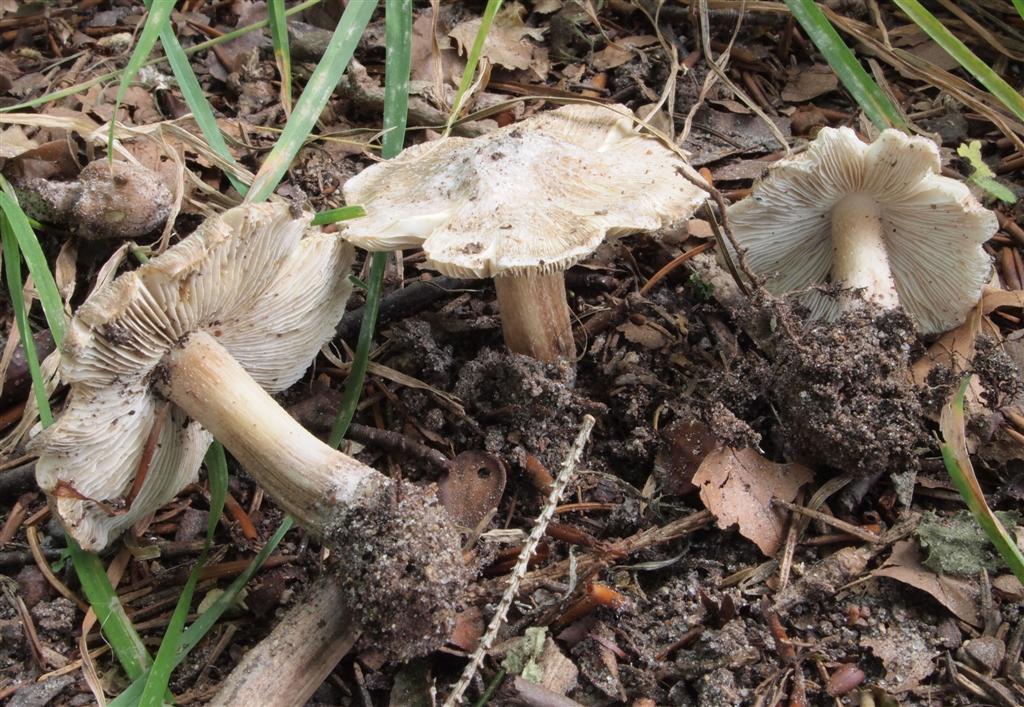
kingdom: Fungi
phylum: Basidiomycota
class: Agaricomycetes
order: Agaricales
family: Inocybaceae
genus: Inosperma
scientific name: Inosperma
